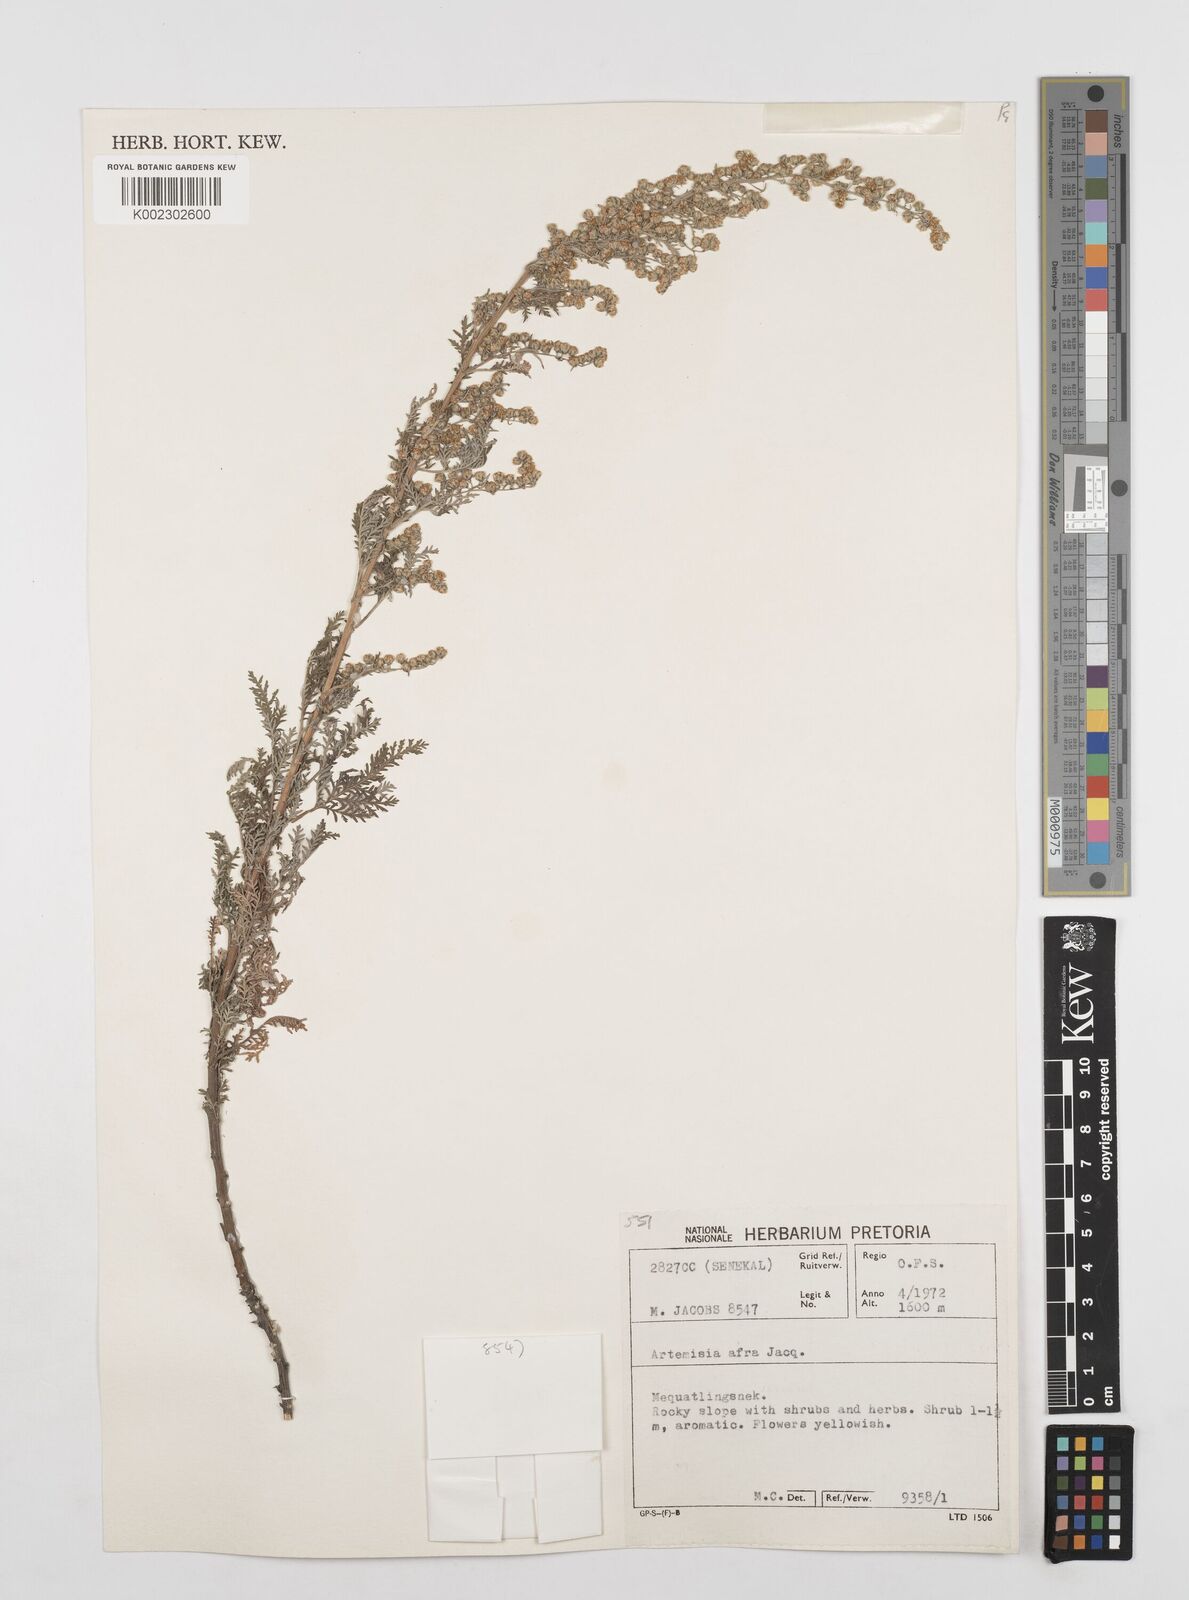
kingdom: Plantae
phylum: Tracheophyta
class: Magnoliopsida
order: Asterales
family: Asteraceae
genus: Artemisia
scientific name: Artemisia afra
